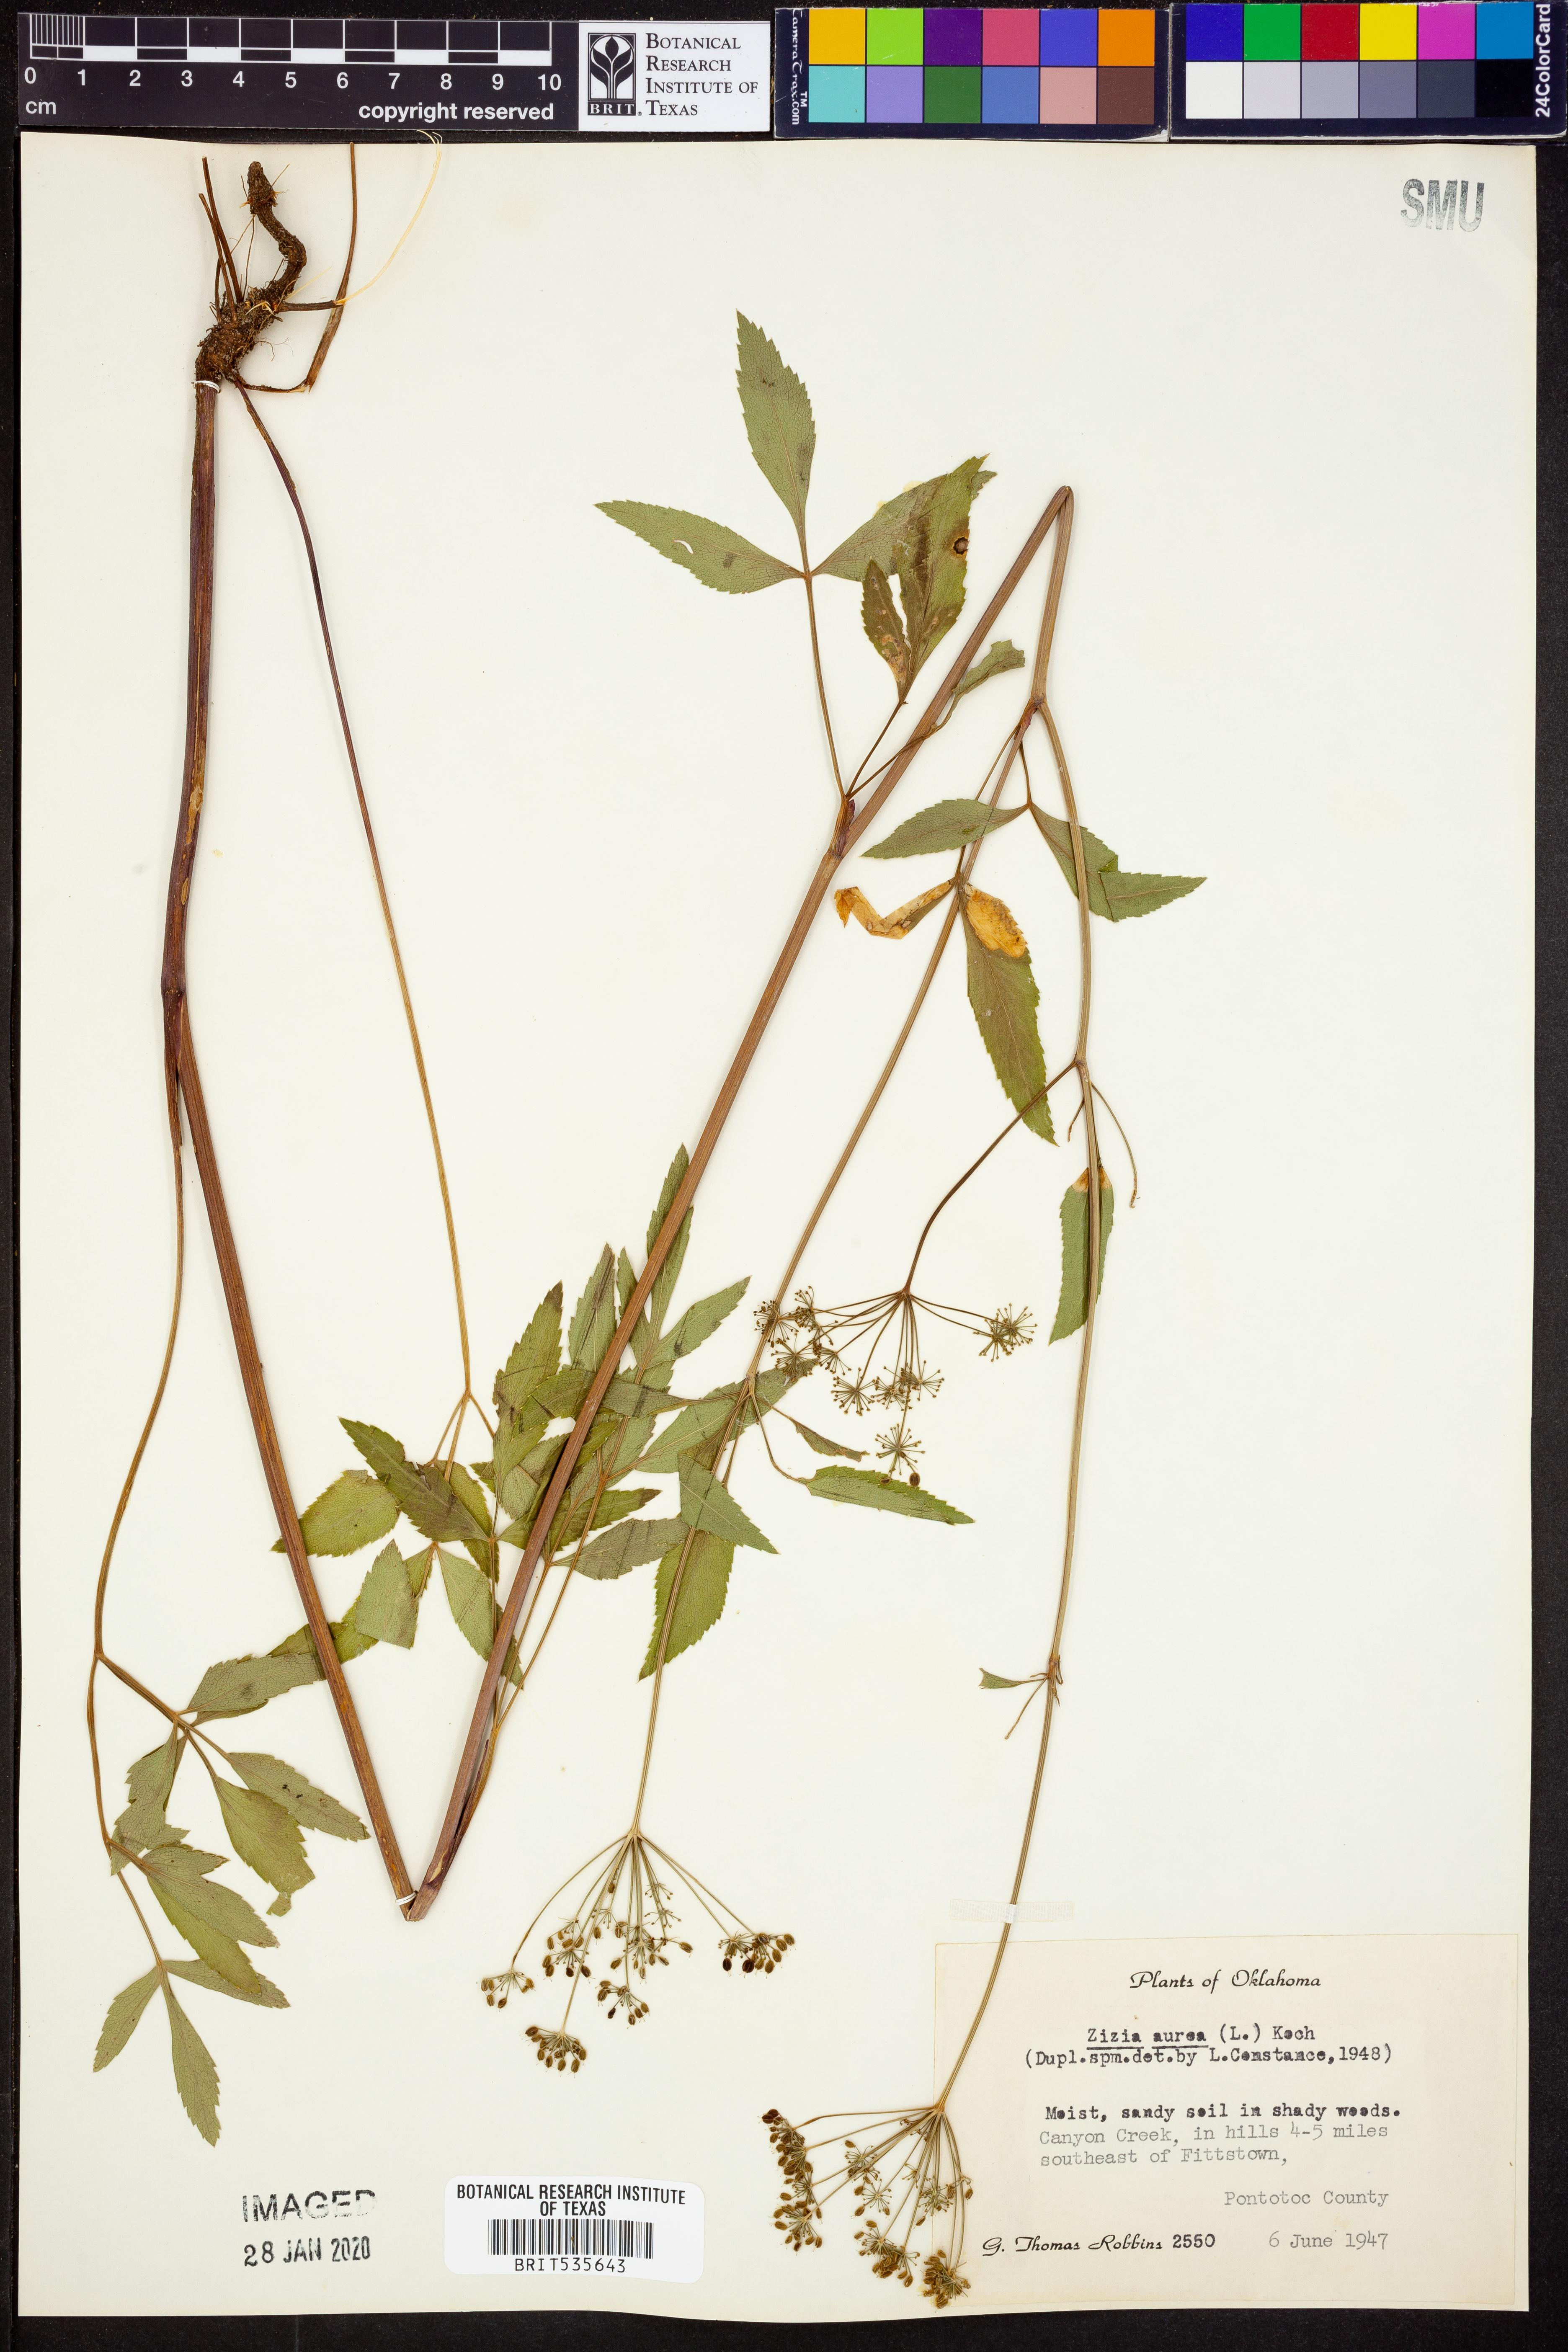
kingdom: Plantae
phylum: Tracheophyta
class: Magnoliopsida
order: Apiales
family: Apiaceae
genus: Zizia
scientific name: Zizia aurea
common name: Golden alexanders
